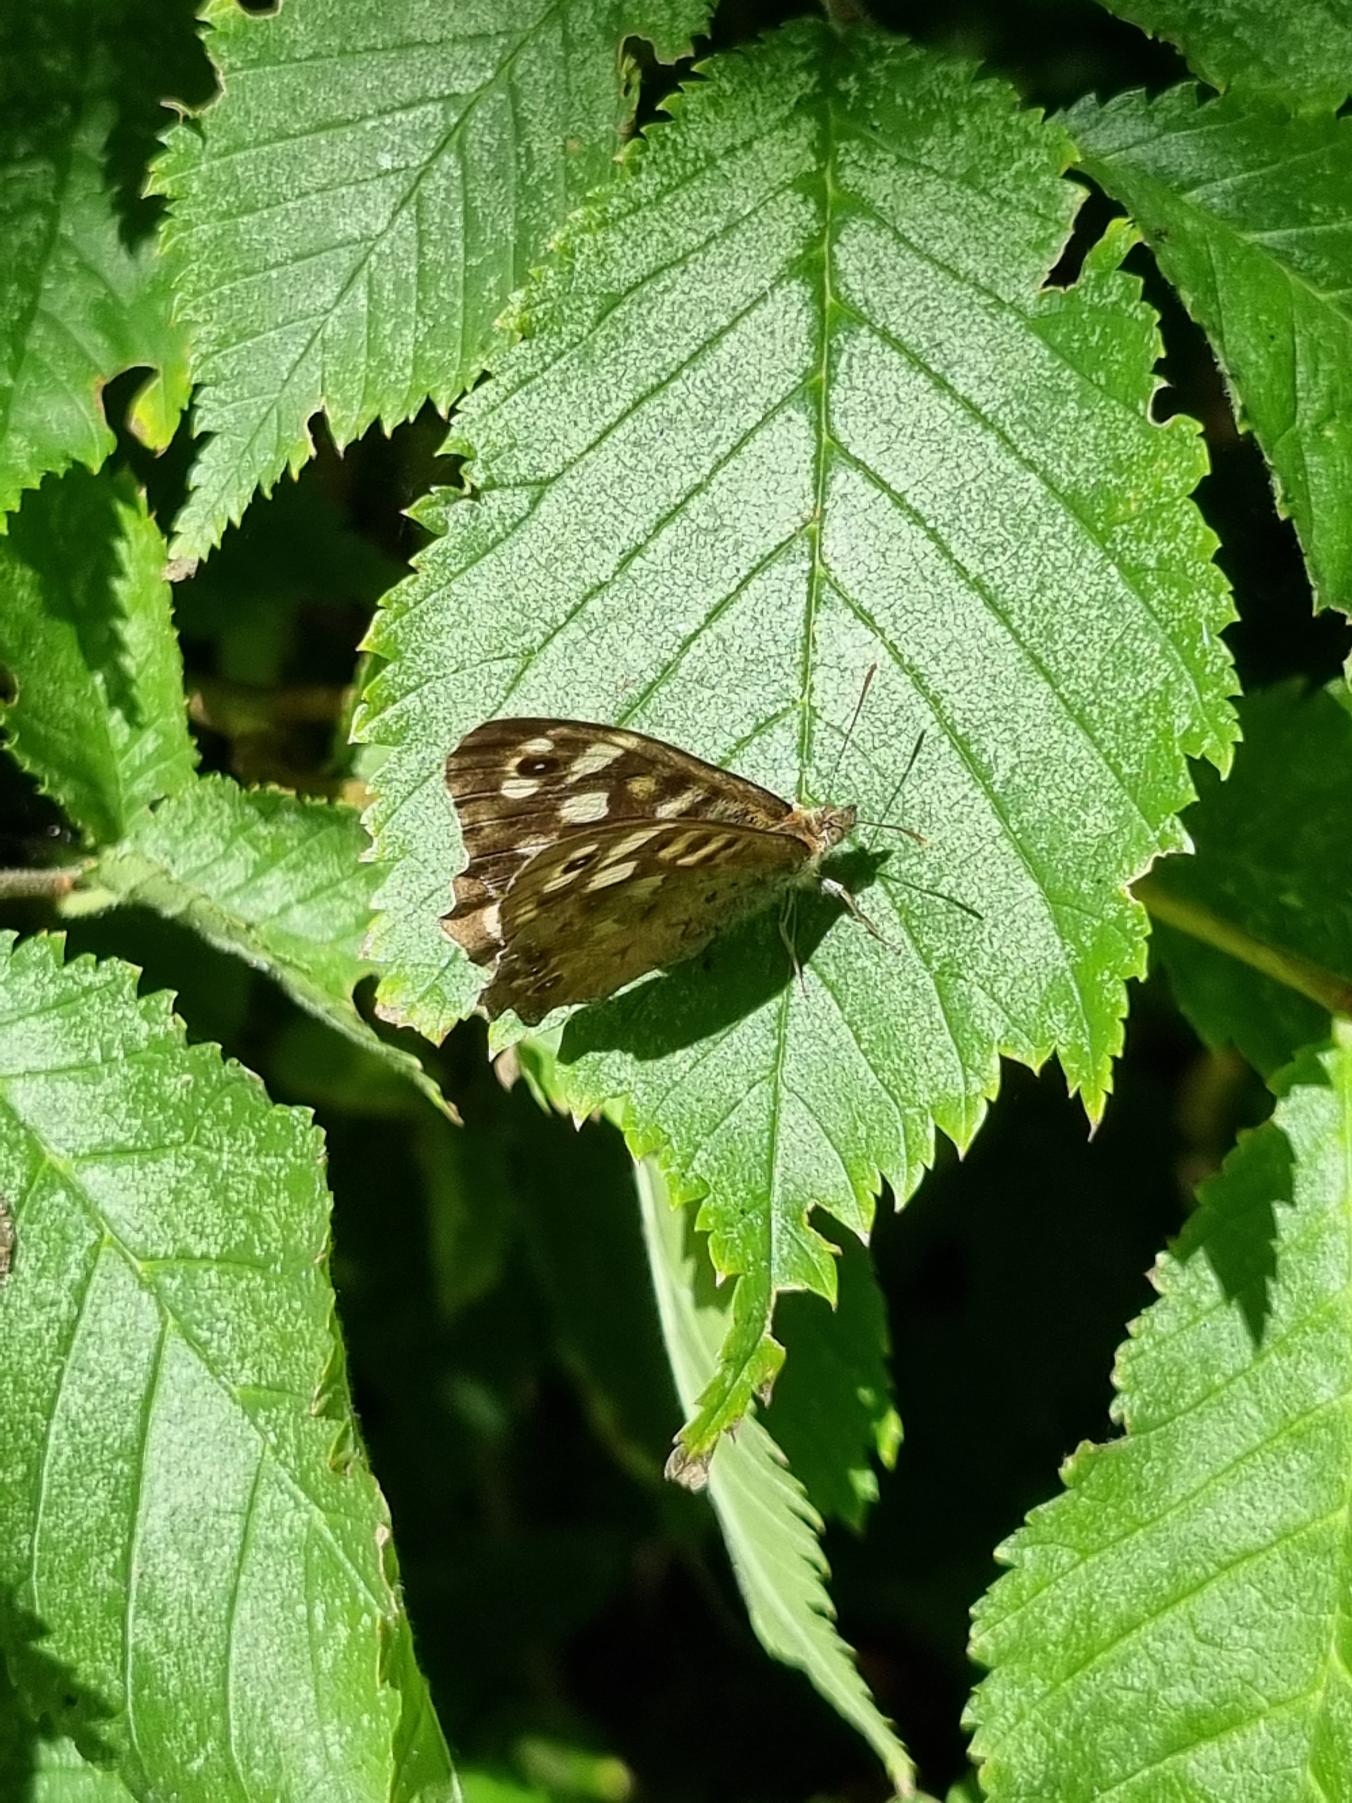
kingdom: Animalia
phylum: Arthropoda
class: Insecta
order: Lepidoptera
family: Nymphalidae
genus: Pararge
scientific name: Pararge aegeria
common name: Skovrandøje
